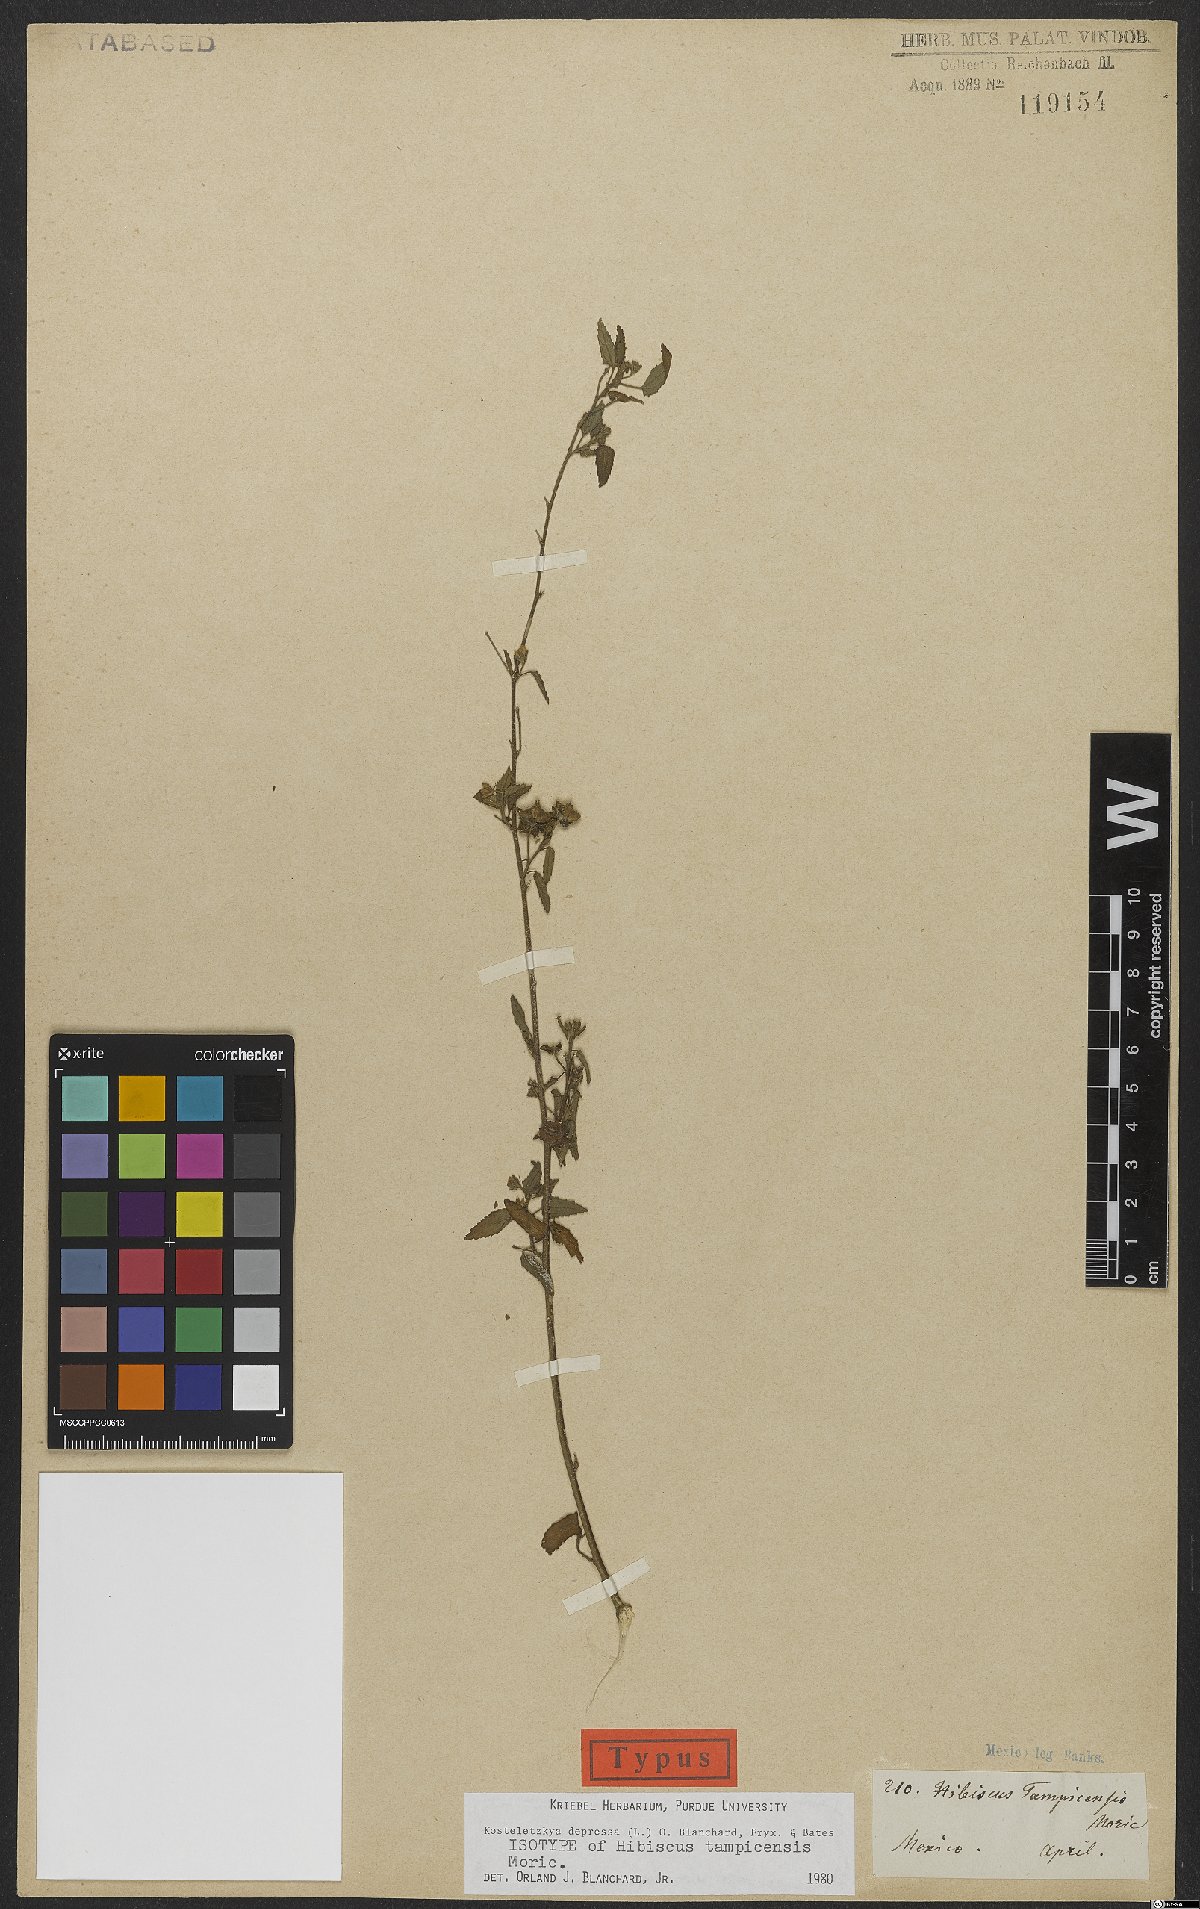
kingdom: Plantae
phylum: Tracheophyta
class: Magnoliopsida
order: Malvales
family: Malvaceae
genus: Kosteletzkya
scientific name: Kosteletzkya depressa
